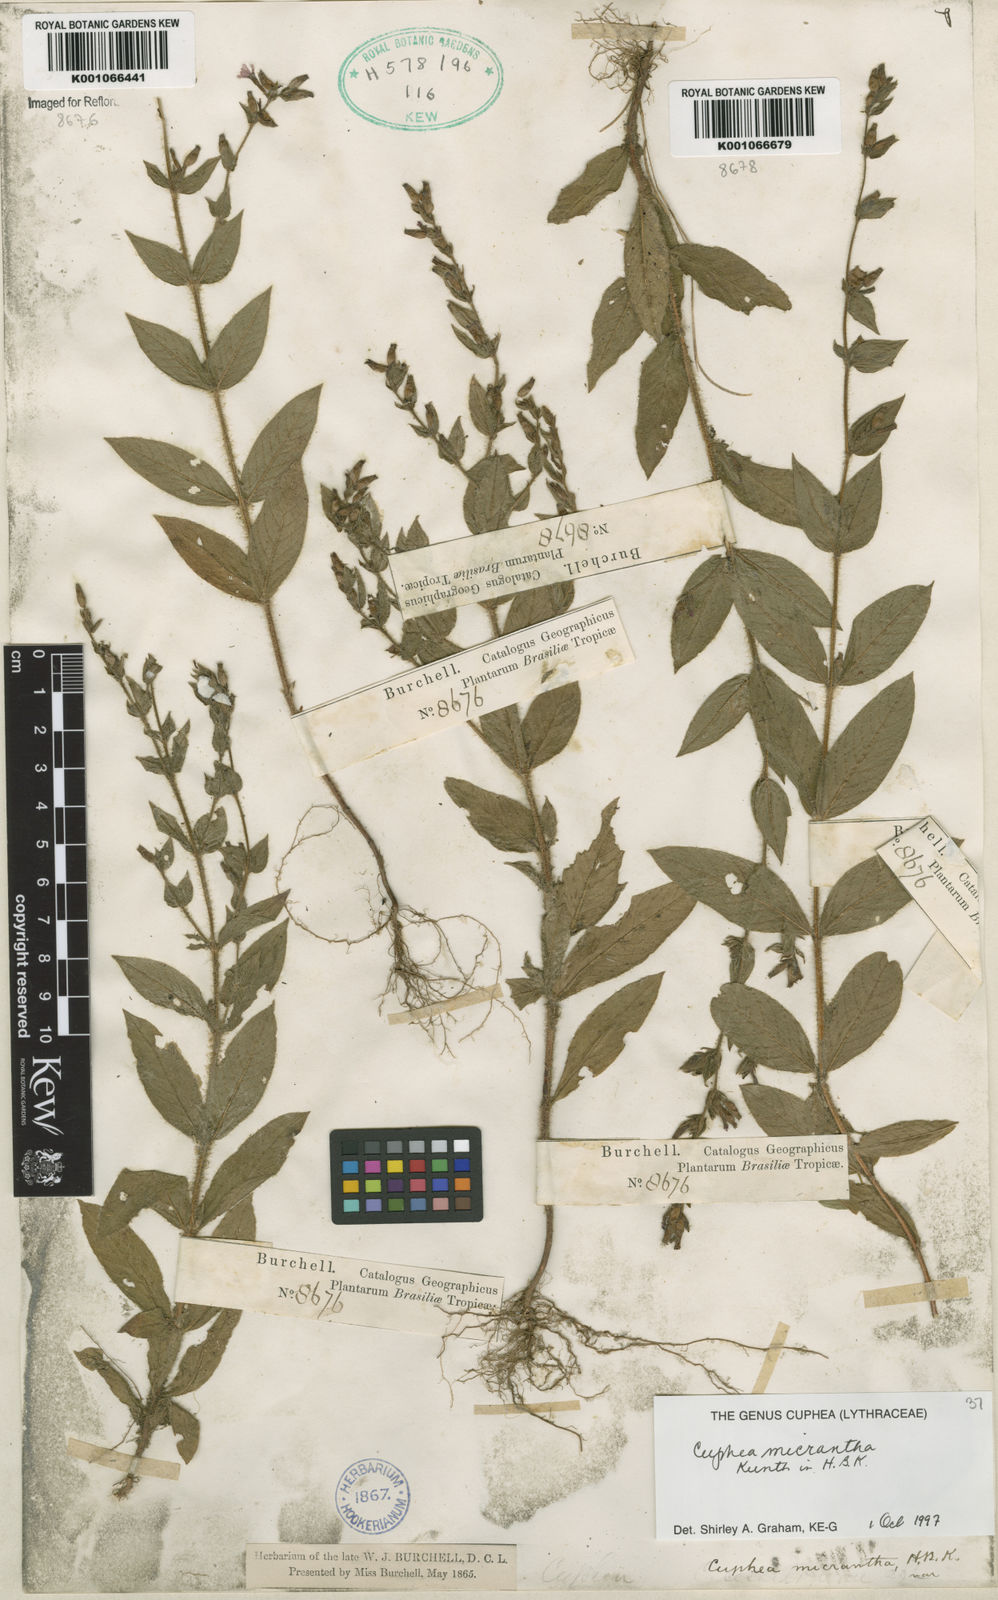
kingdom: Plantae
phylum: Tracheophyta
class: Magnoliopsida
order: Myrtales
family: Lythraceae
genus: Cuphea
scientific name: Cuphea micrantha
